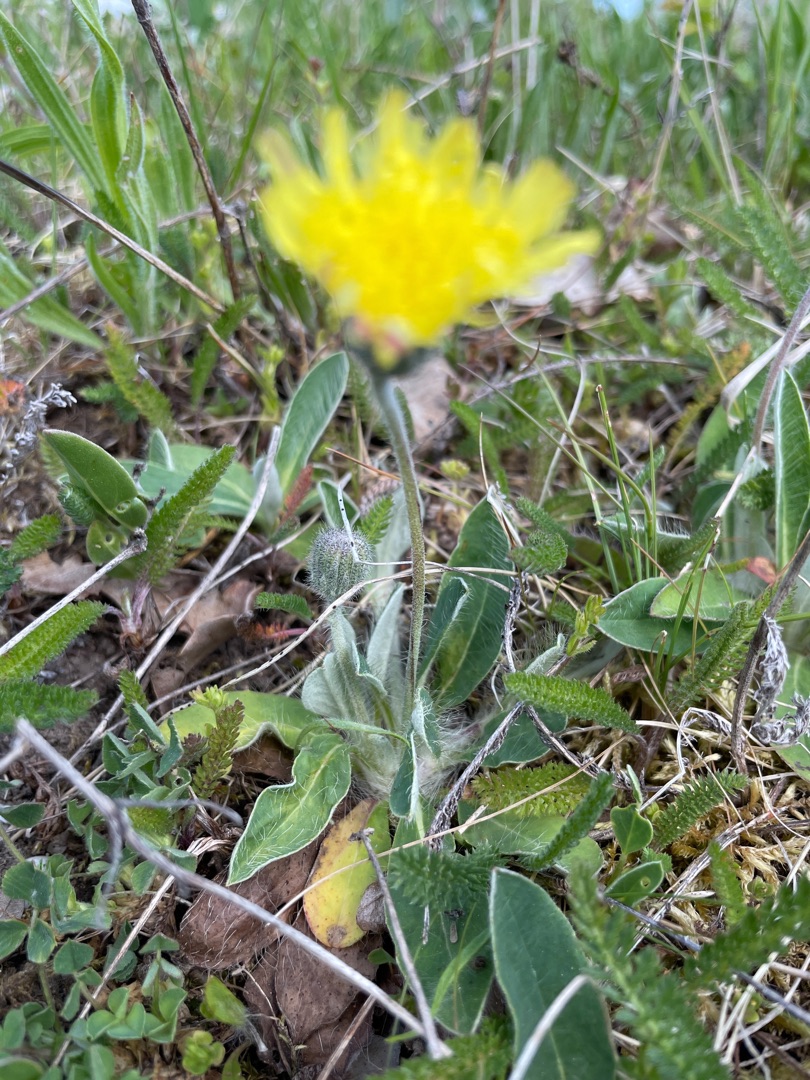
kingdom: Plantae
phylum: Tracheophyta
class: Magnoliopsida
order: Asterales
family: Asteraceae
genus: Pilosella
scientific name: Pilosella officinarum
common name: Håret høgeurt
